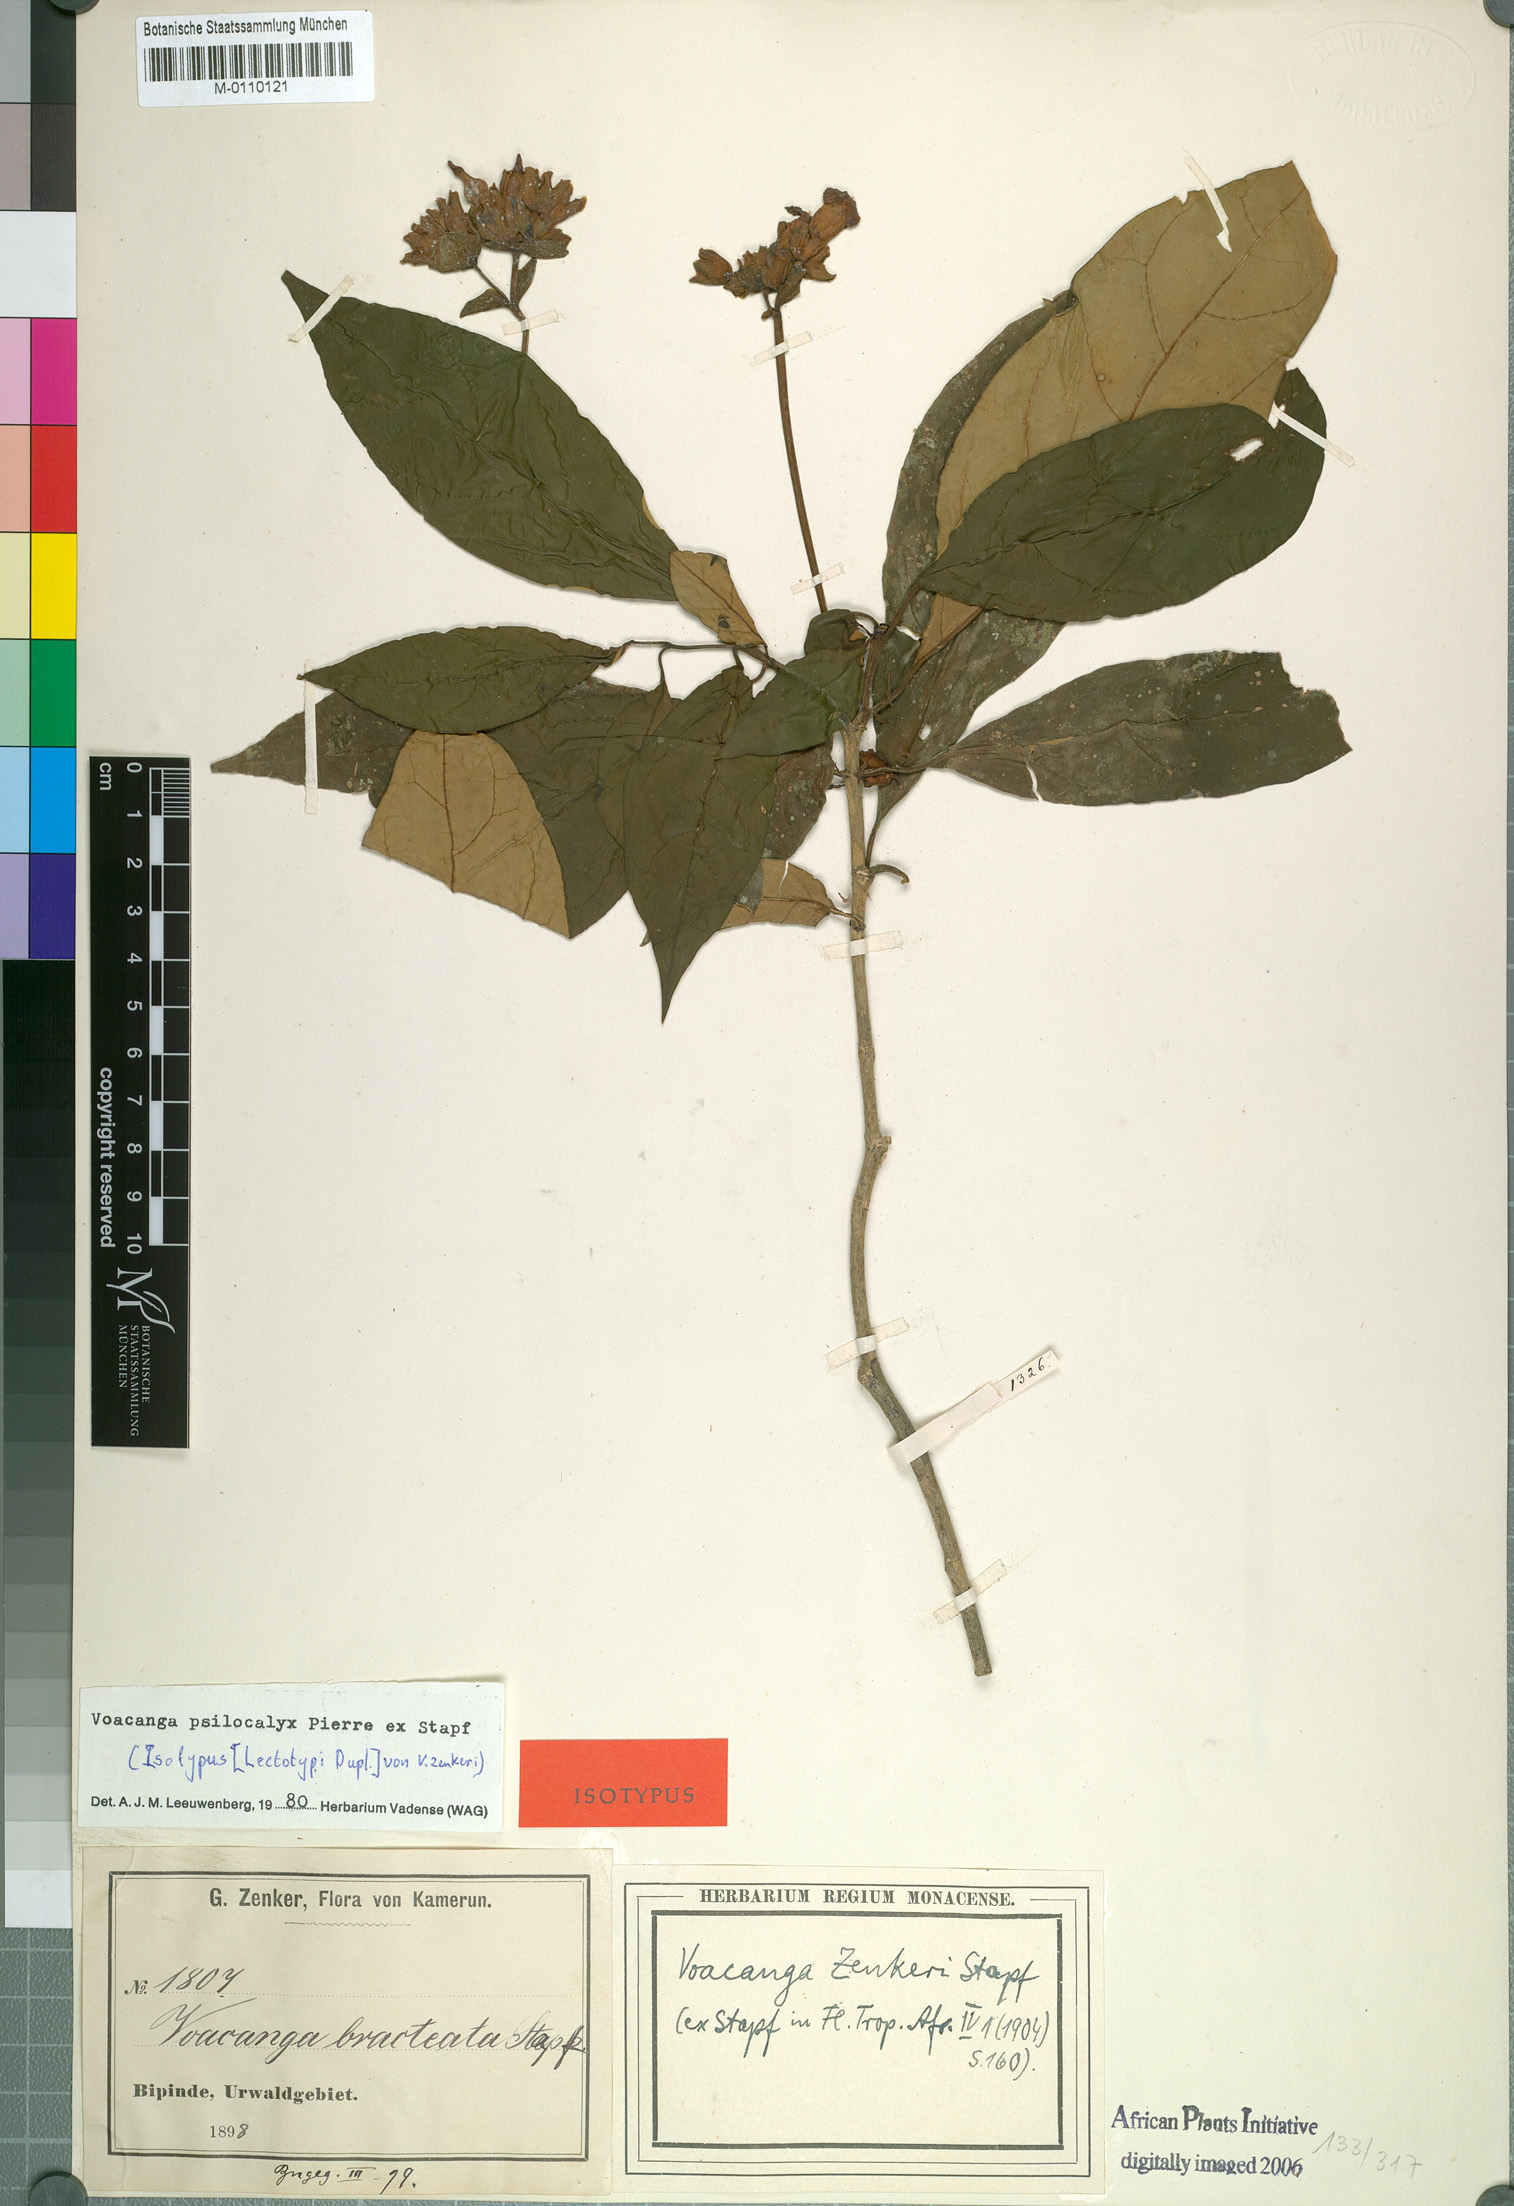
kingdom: Plantae
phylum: Tracheophyta
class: Magnoliopsida
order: Gentianales
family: Apocynaceae
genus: Voacanga
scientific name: Voacanga psilocalyx
